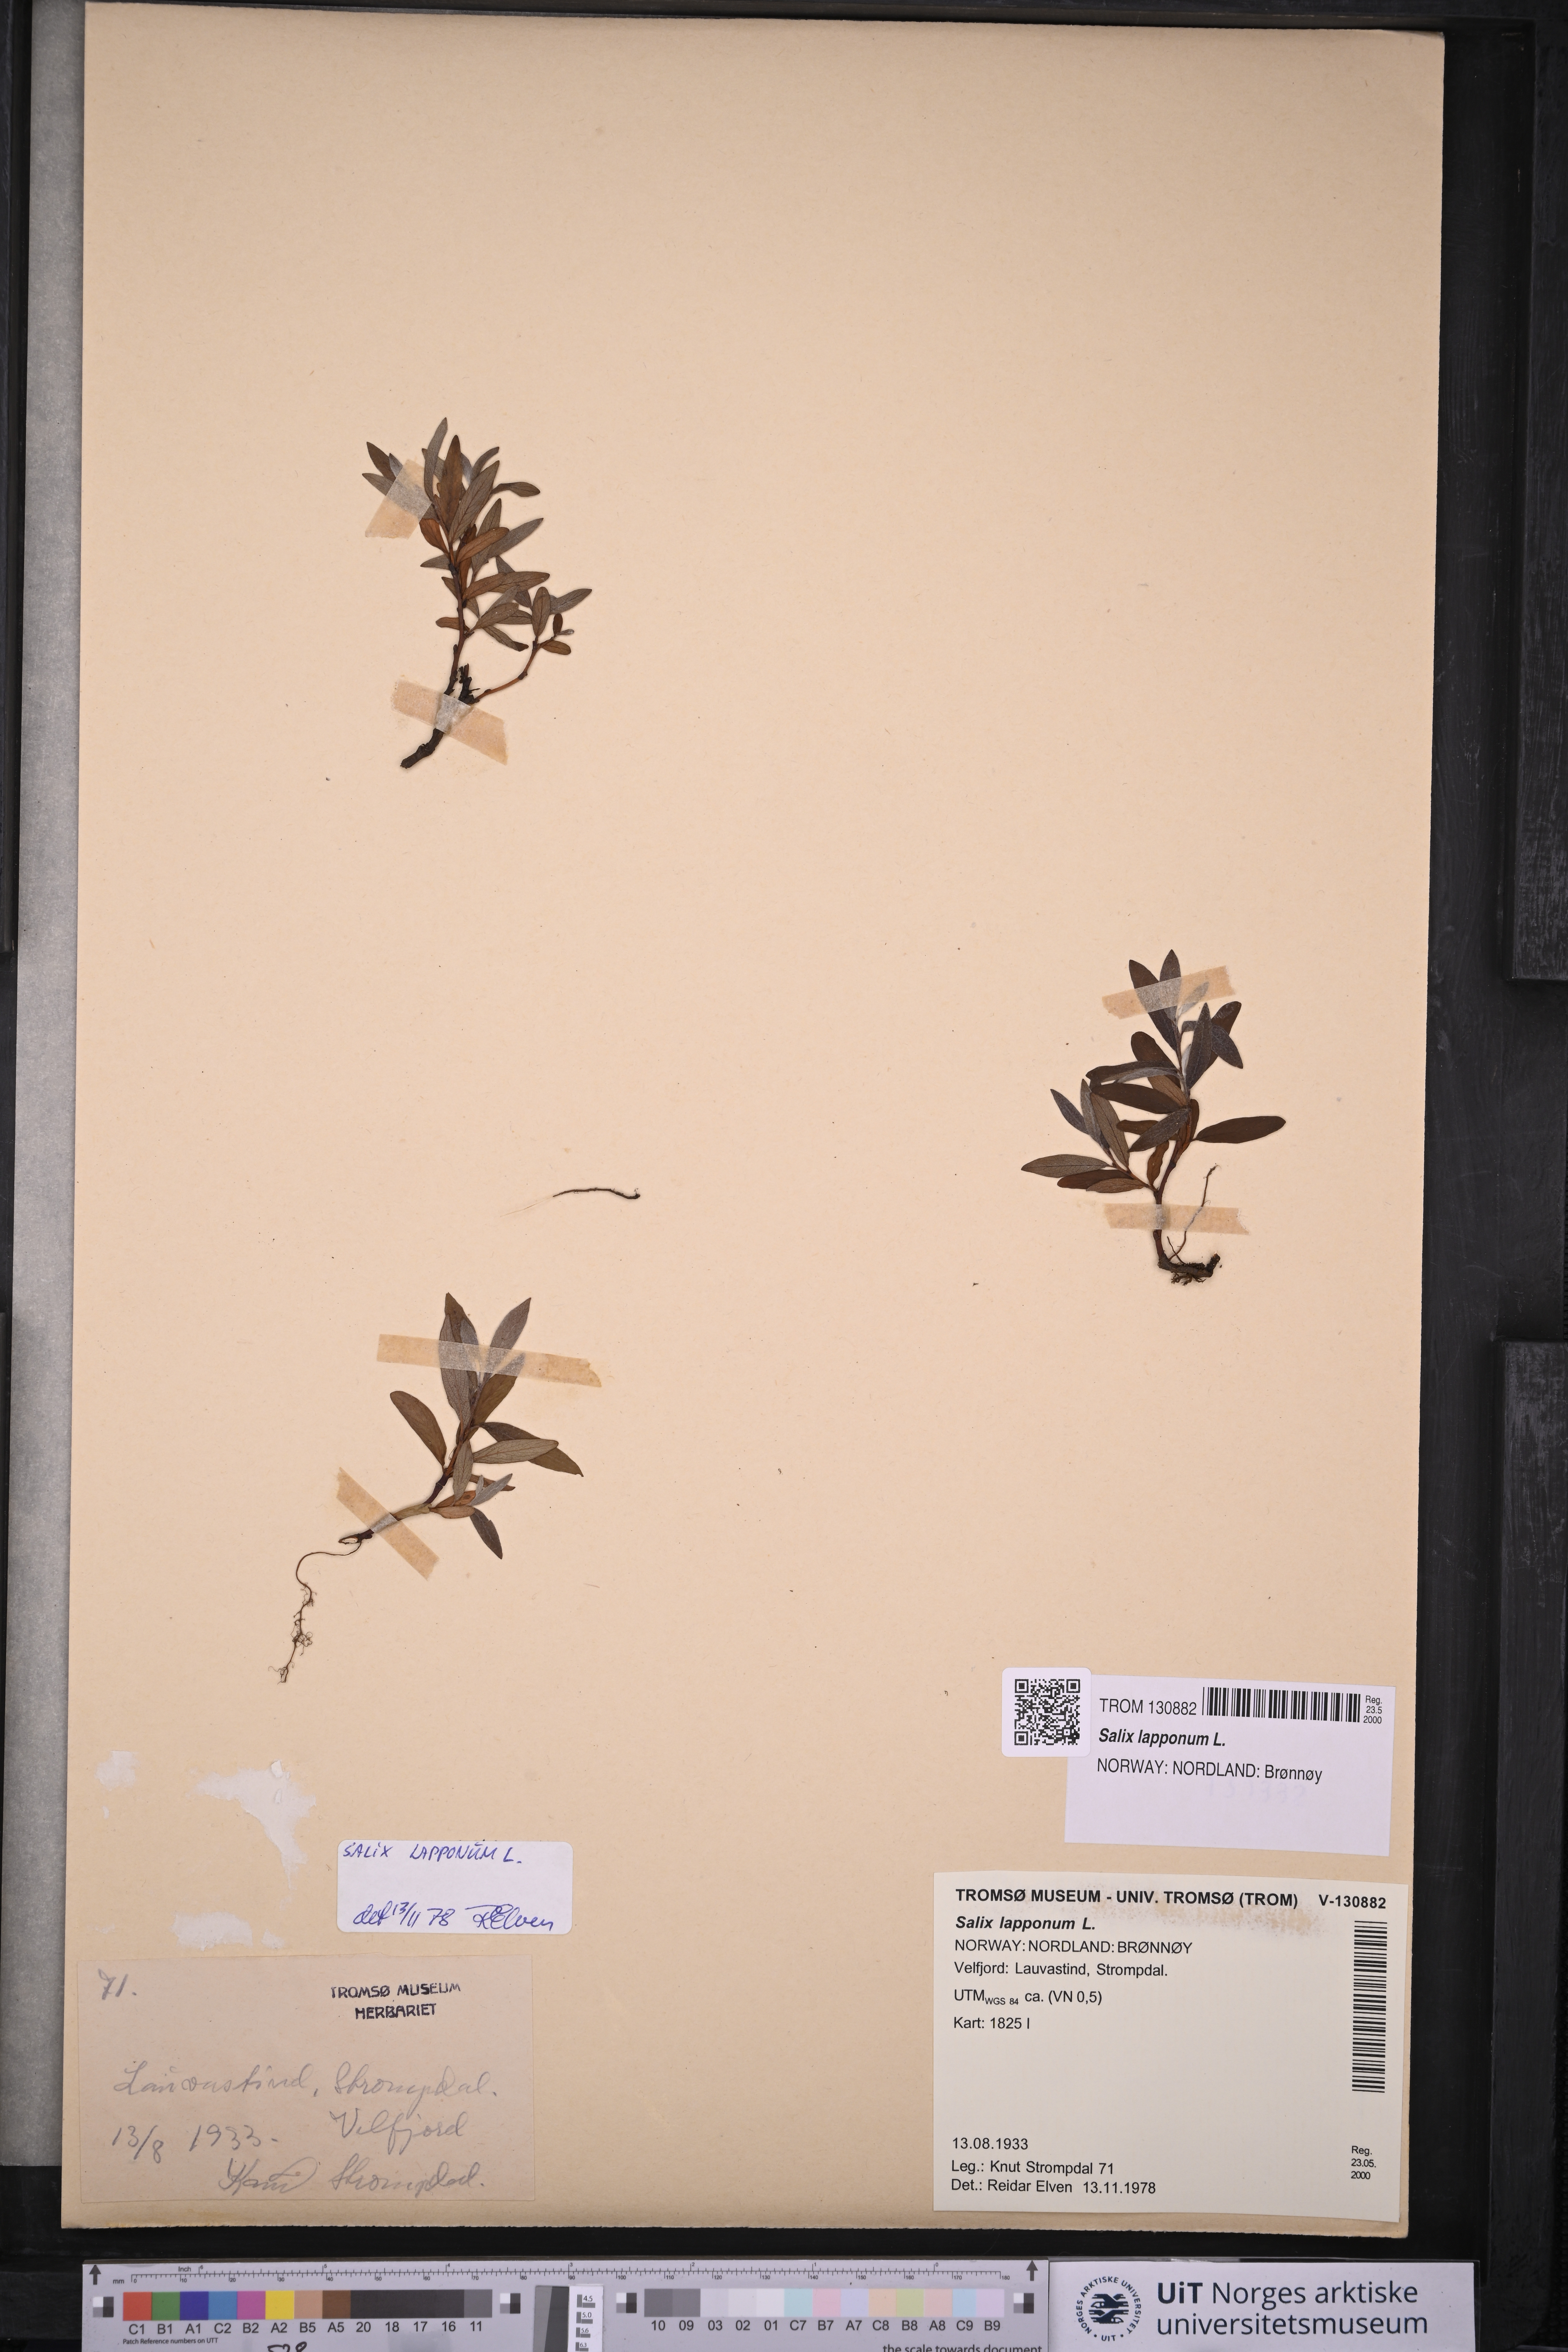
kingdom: Plantae
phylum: Tracheophyta
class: Magnoliopsida
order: Malpighiales
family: Salicaceae
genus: Salix
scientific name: Salix lapponum
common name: Downy willow
